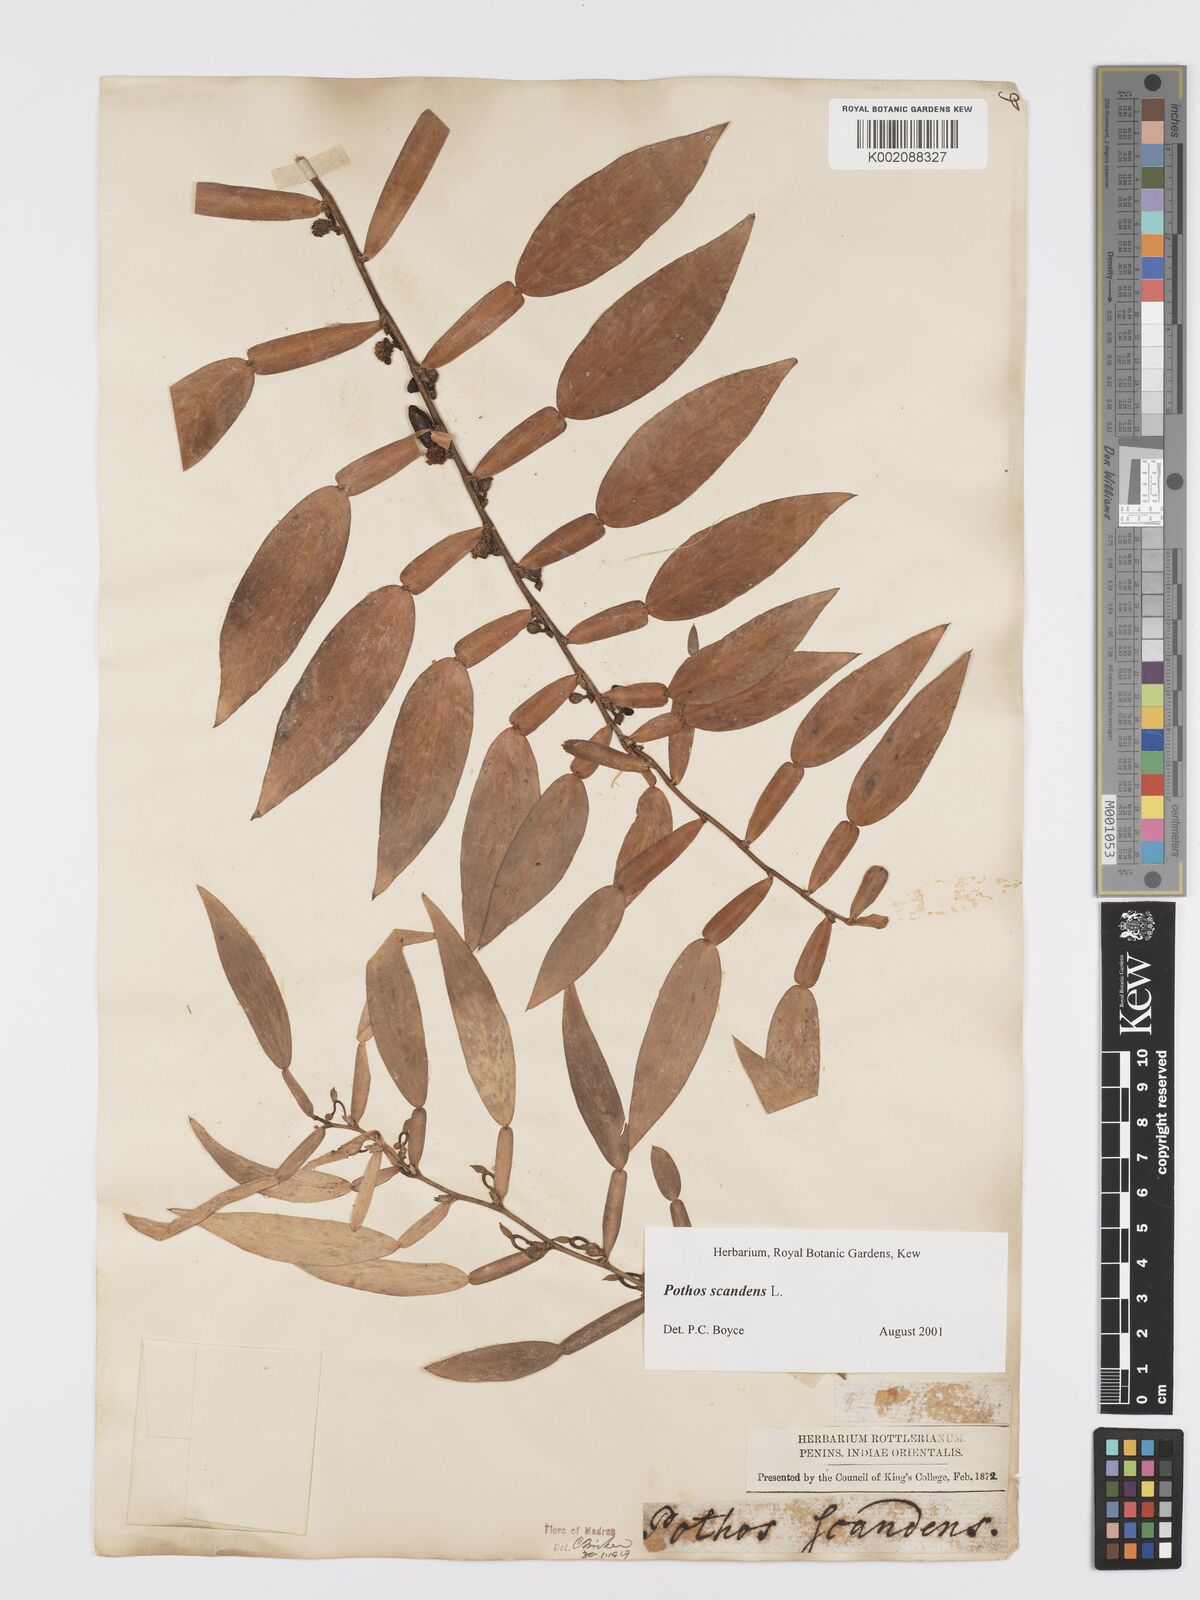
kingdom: Plantae
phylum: Tracheophyta
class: Liliopsida
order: Alismatales
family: Araceae
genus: Pothos
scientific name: Pothos scandens
